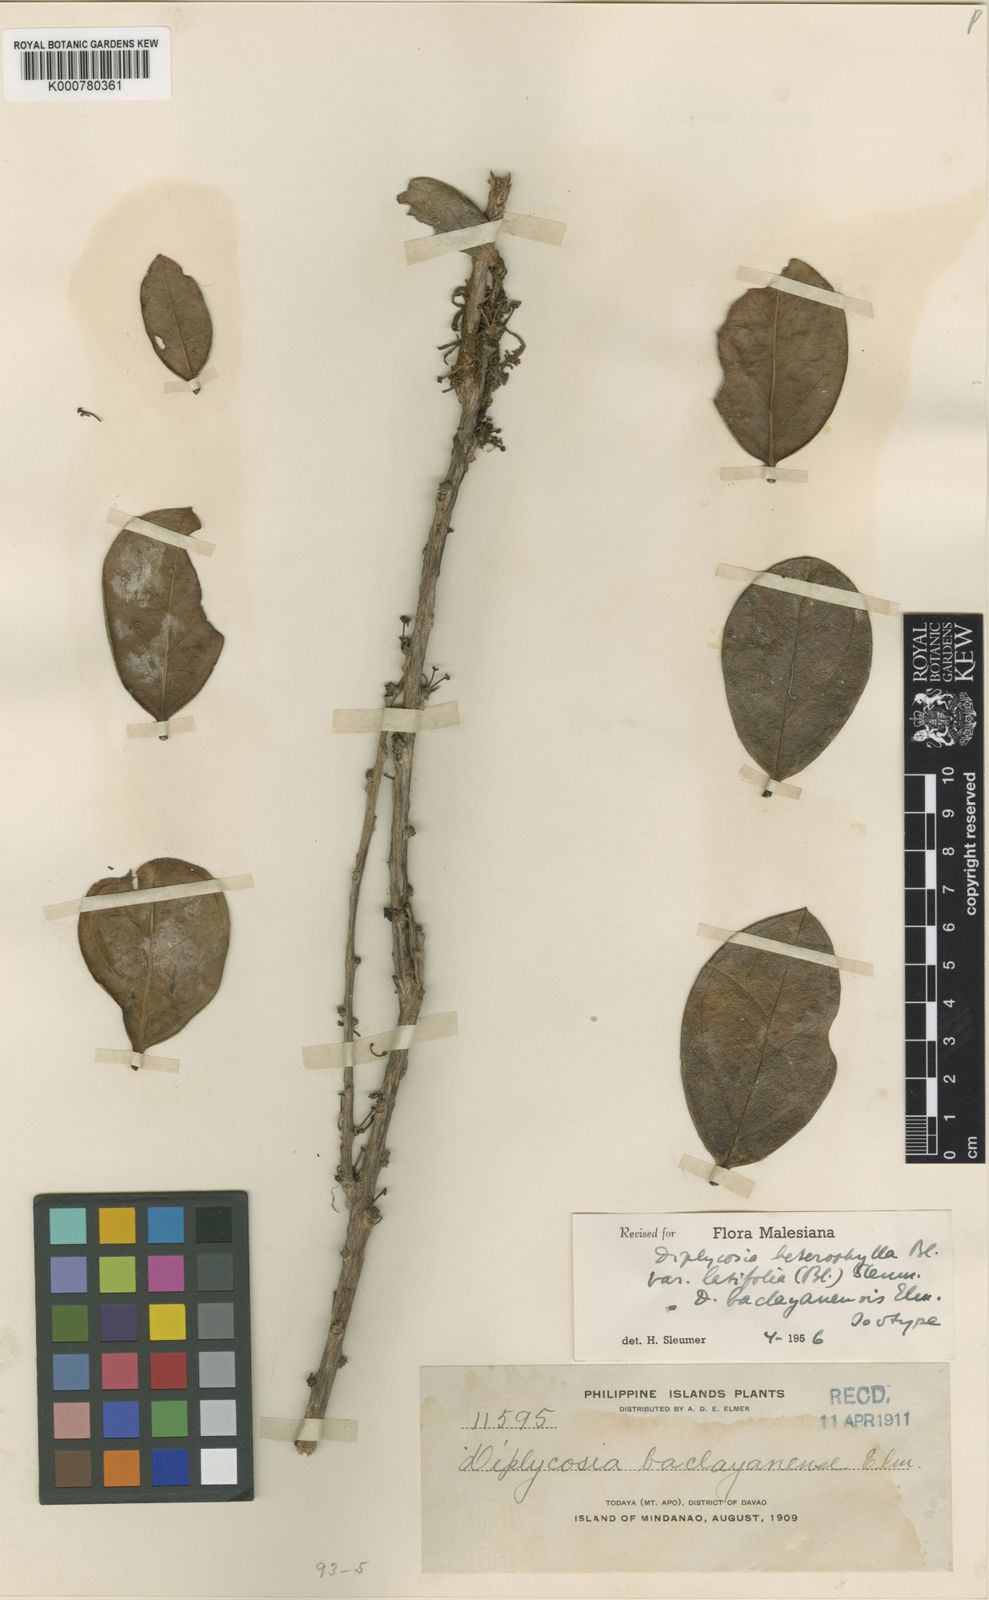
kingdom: Plantae
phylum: Tracheophyta
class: Magnoliopsida
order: Ericales
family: Ericaceae
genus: Gaultheria
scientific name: Gaultheria heterophylla
